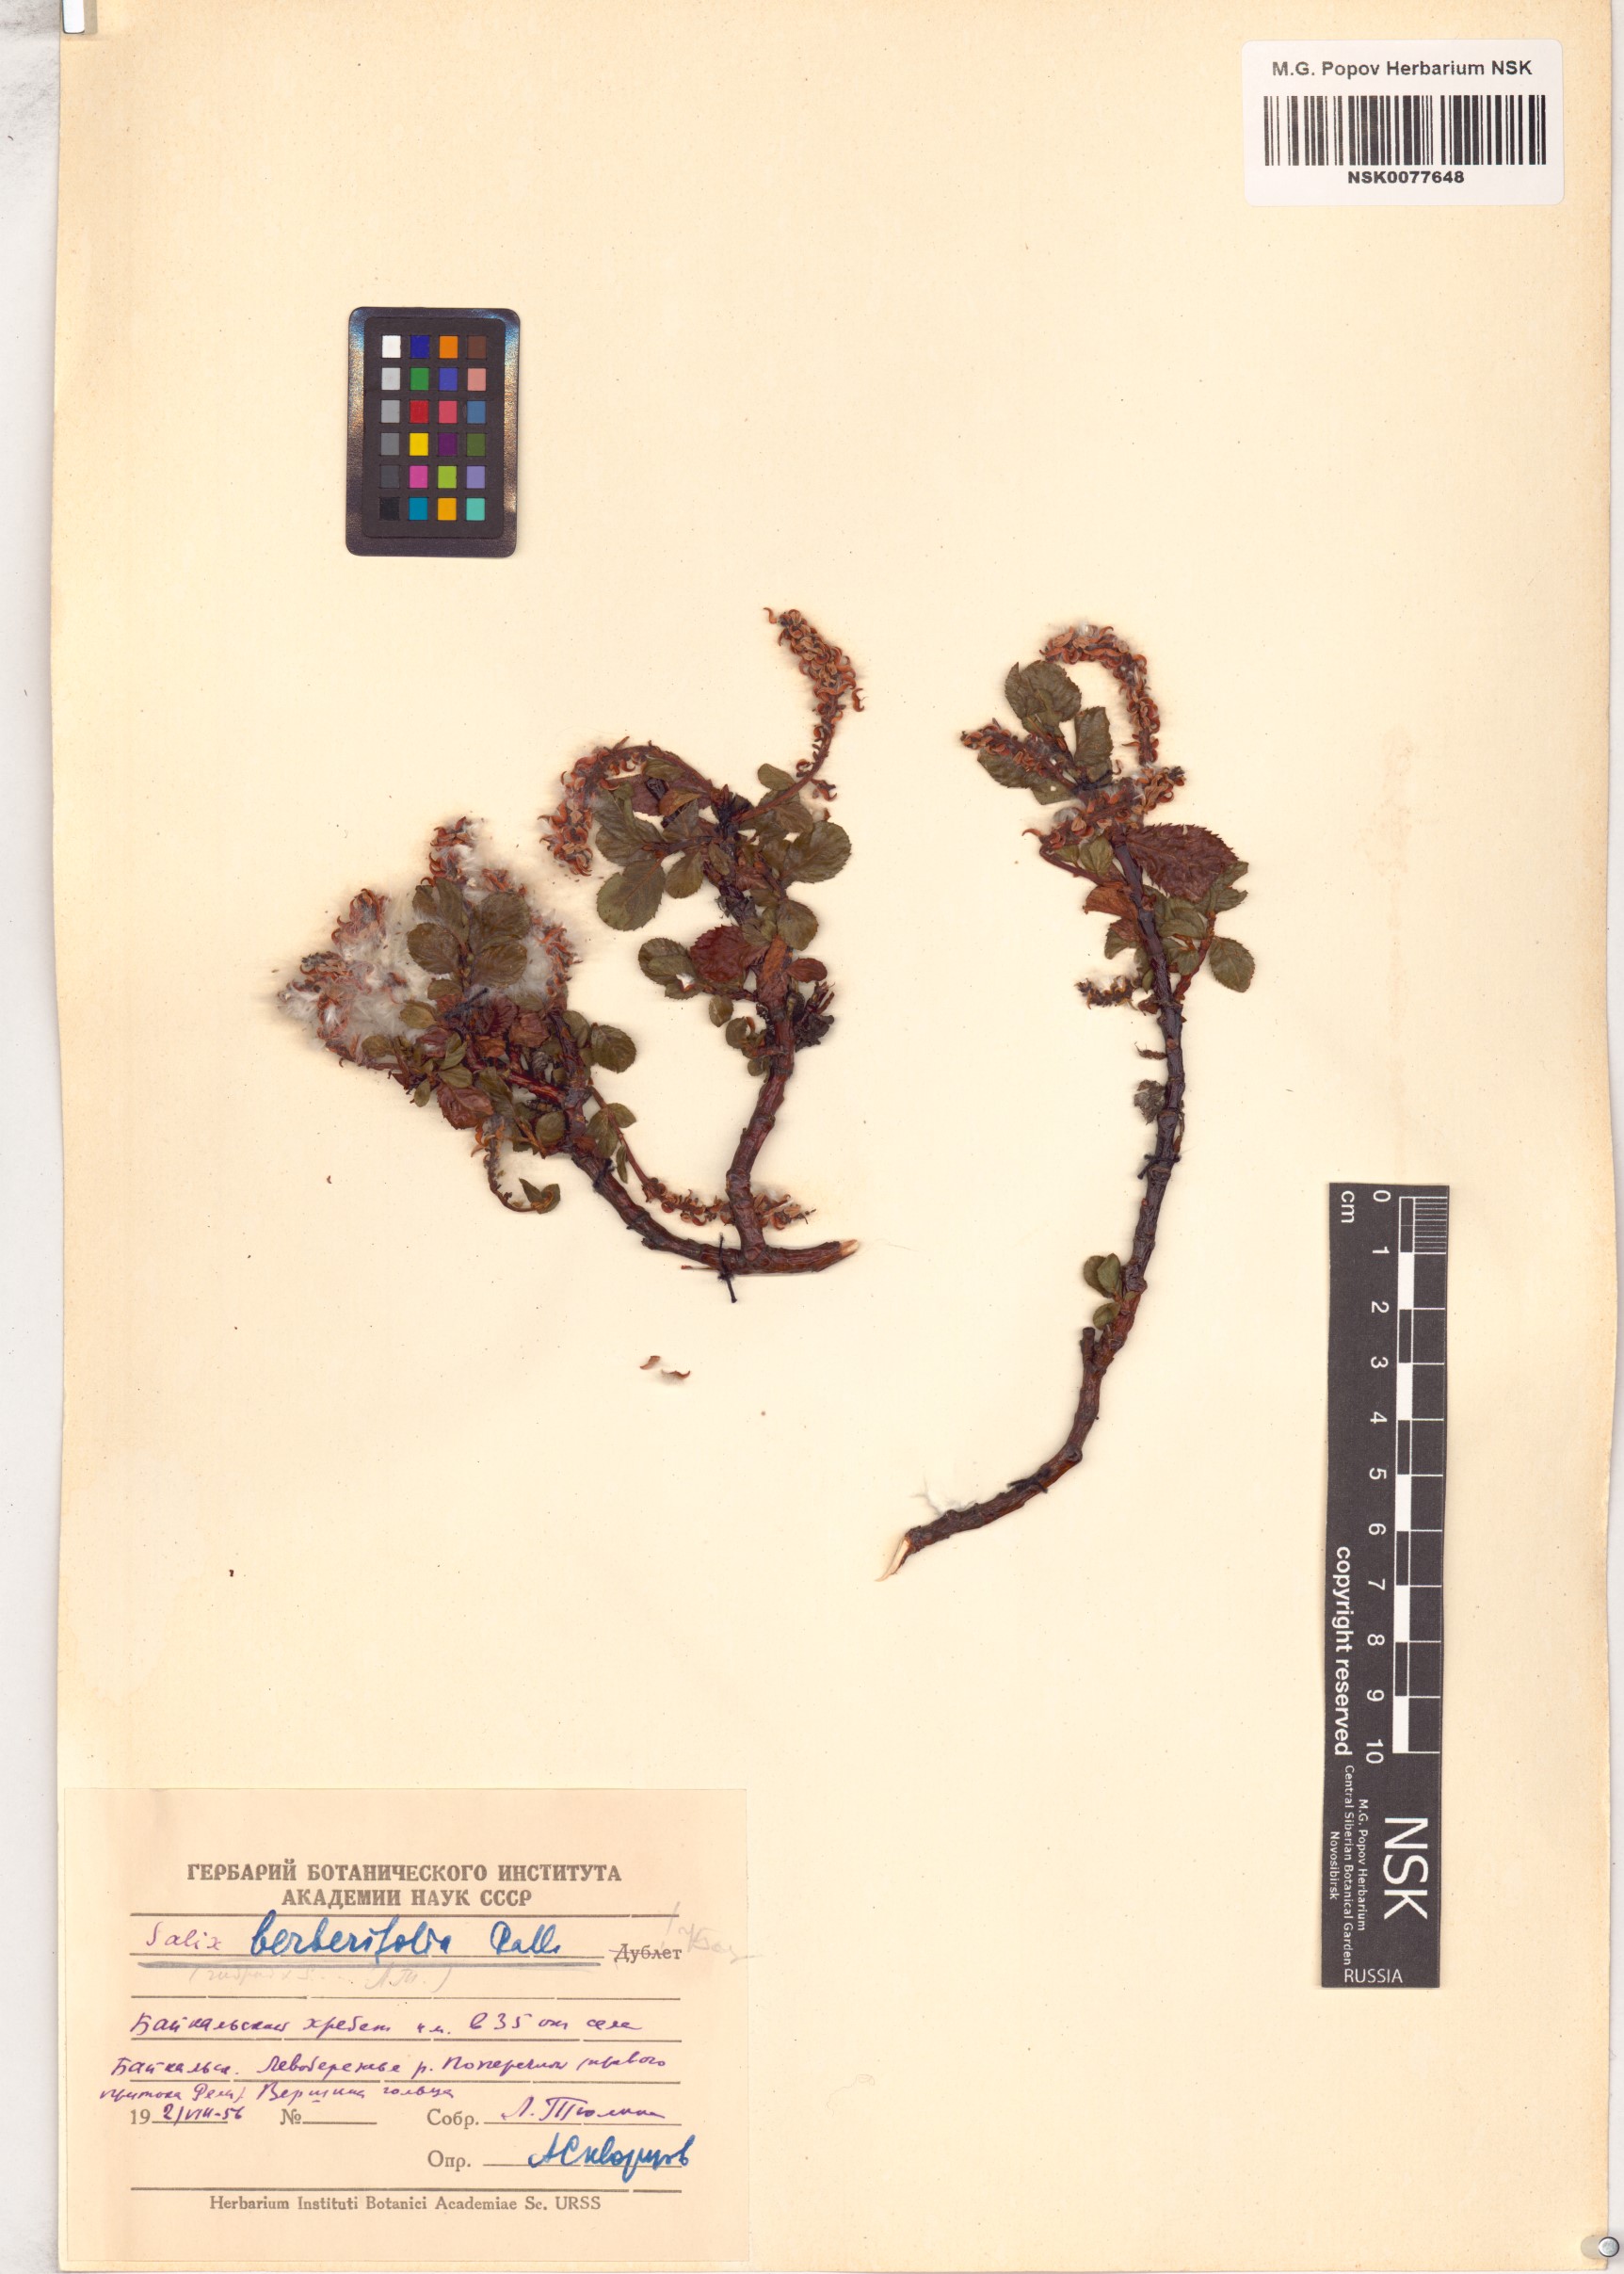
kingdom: Plantae
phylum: Tracheophyta
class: Magnoliopsida
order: Malpighiales
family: Salicaceae
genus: Salix
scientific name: Salix berberifolia
